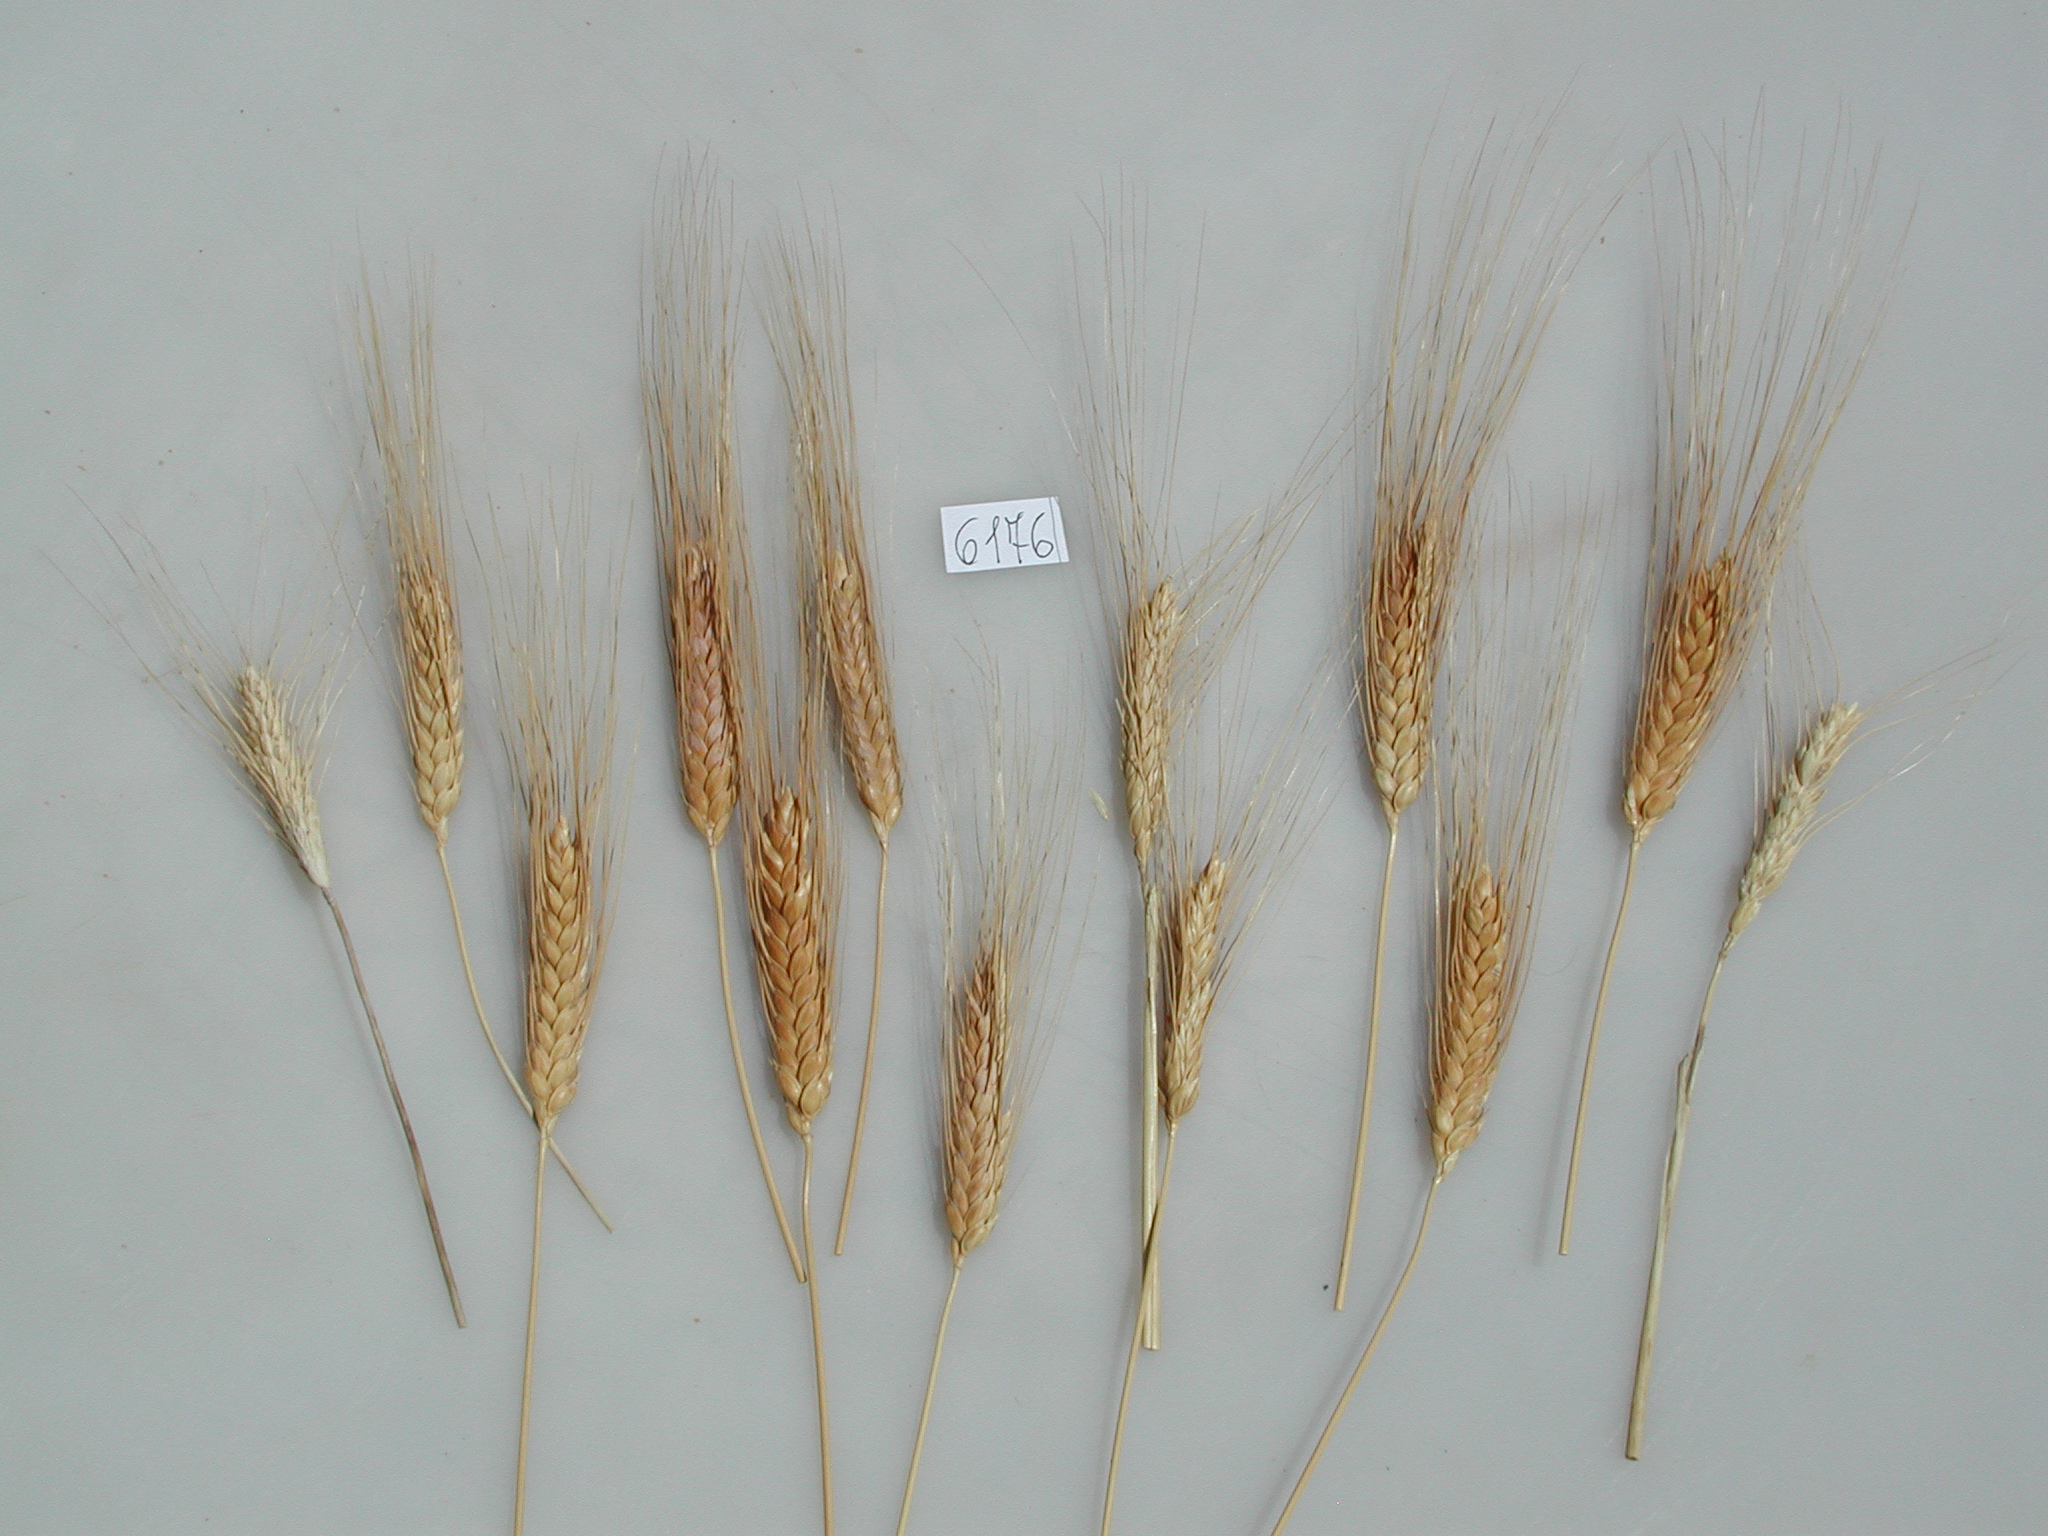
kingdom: Plantae
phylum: Tracheophyta
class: Liliopsida
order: Poales
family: Poaceae
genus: Triticum
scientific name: Triticum turgidum
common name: Wheat
